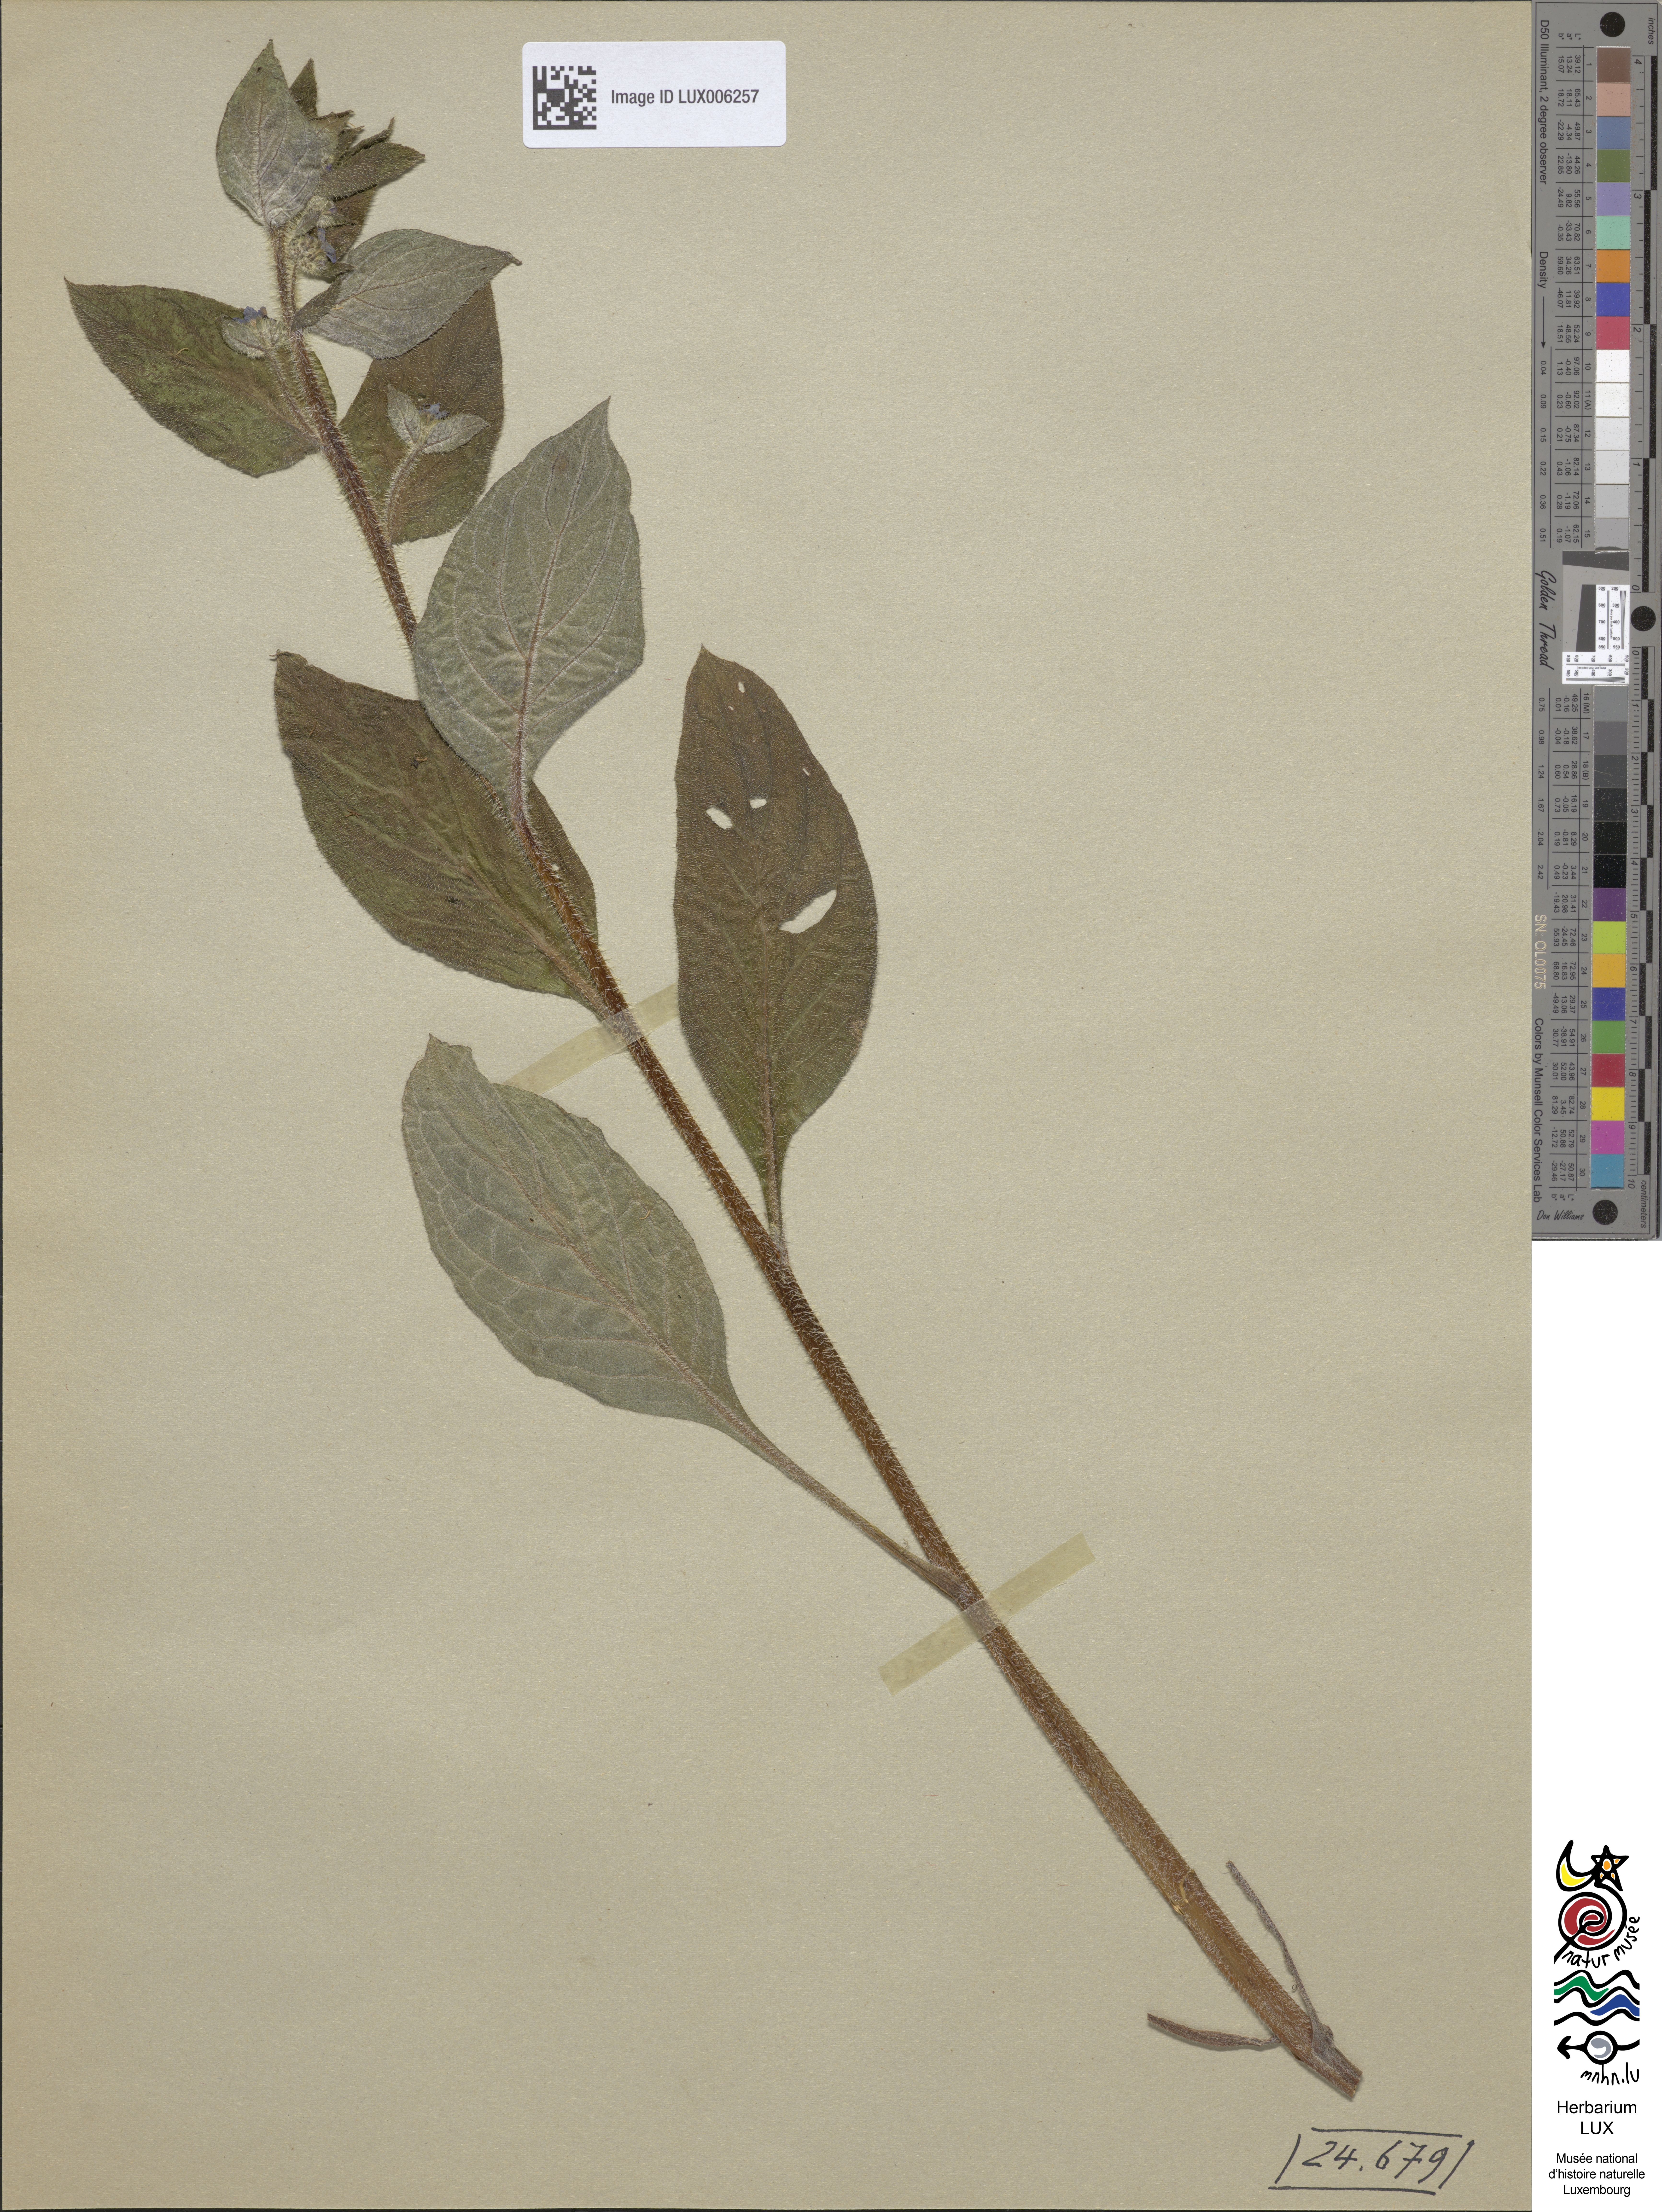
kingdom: Plantae
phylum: Tracheophyta
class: Magnoliopsida
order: Boraginales
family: Boraginaceae
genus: Pentaglottis
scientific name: Pentaglottis sempervirens
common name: Green alkanet
